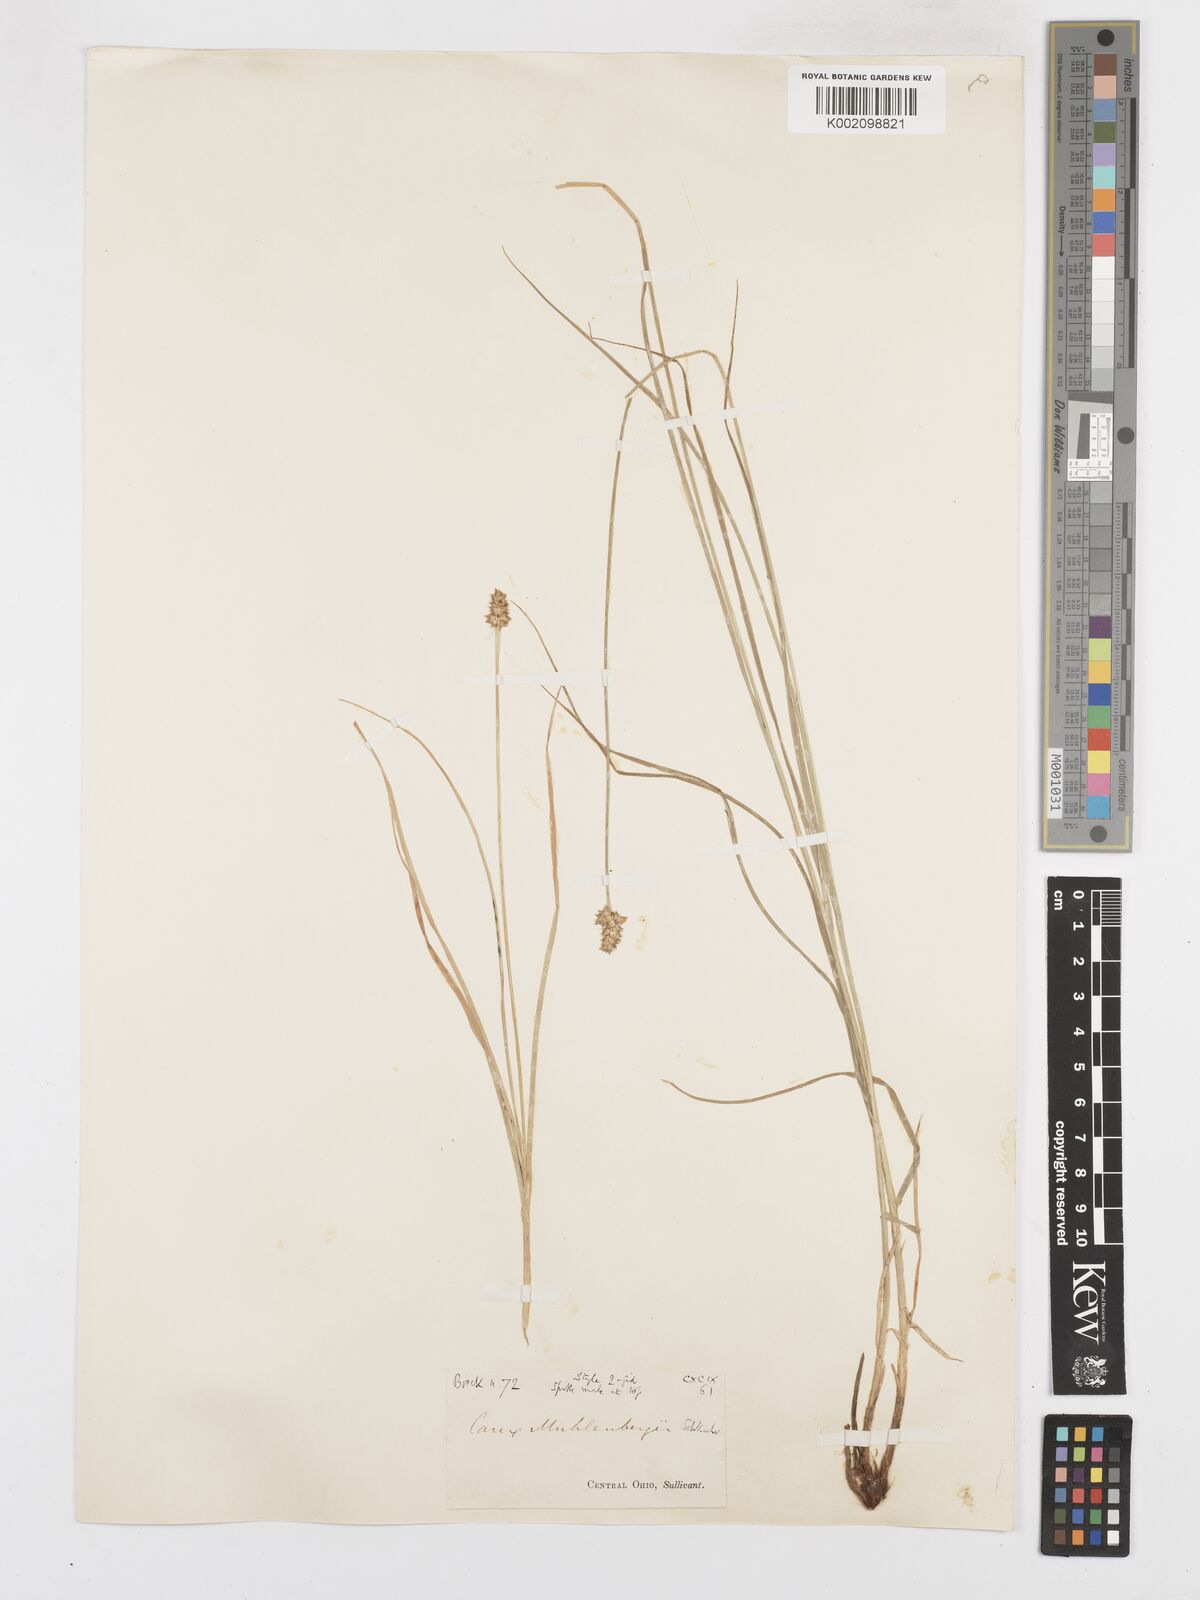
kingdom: Plantae
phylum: Tracheophyta
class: Liliopsida
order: Poales
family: Cyperaceae
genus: Carex
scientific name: Carex densa
